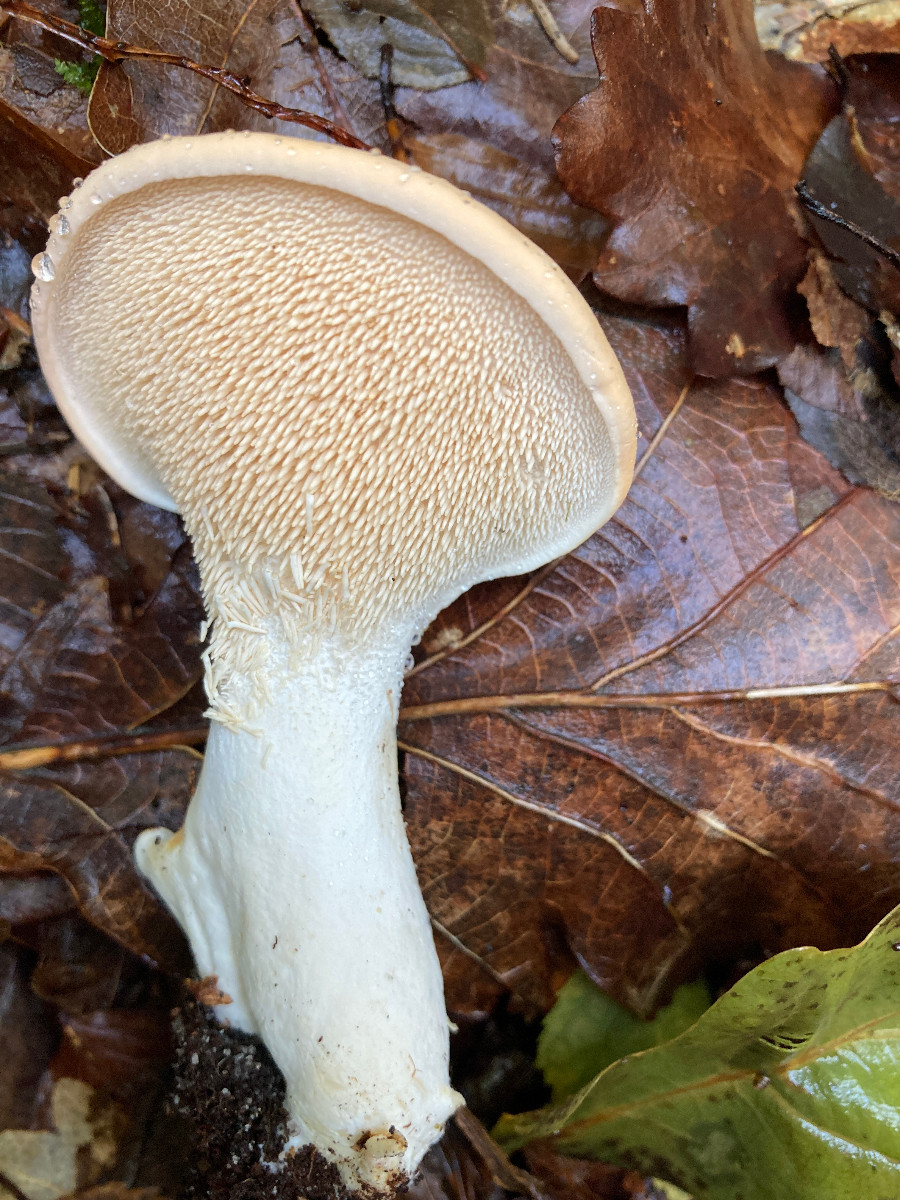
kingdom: Fungi
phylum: Basidiomycota
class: Agaricomycetes
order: Cantharellales
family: Hydnaceae
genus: Hydnum
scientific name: Hydnum repandum
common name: almindelig pigsvamp
